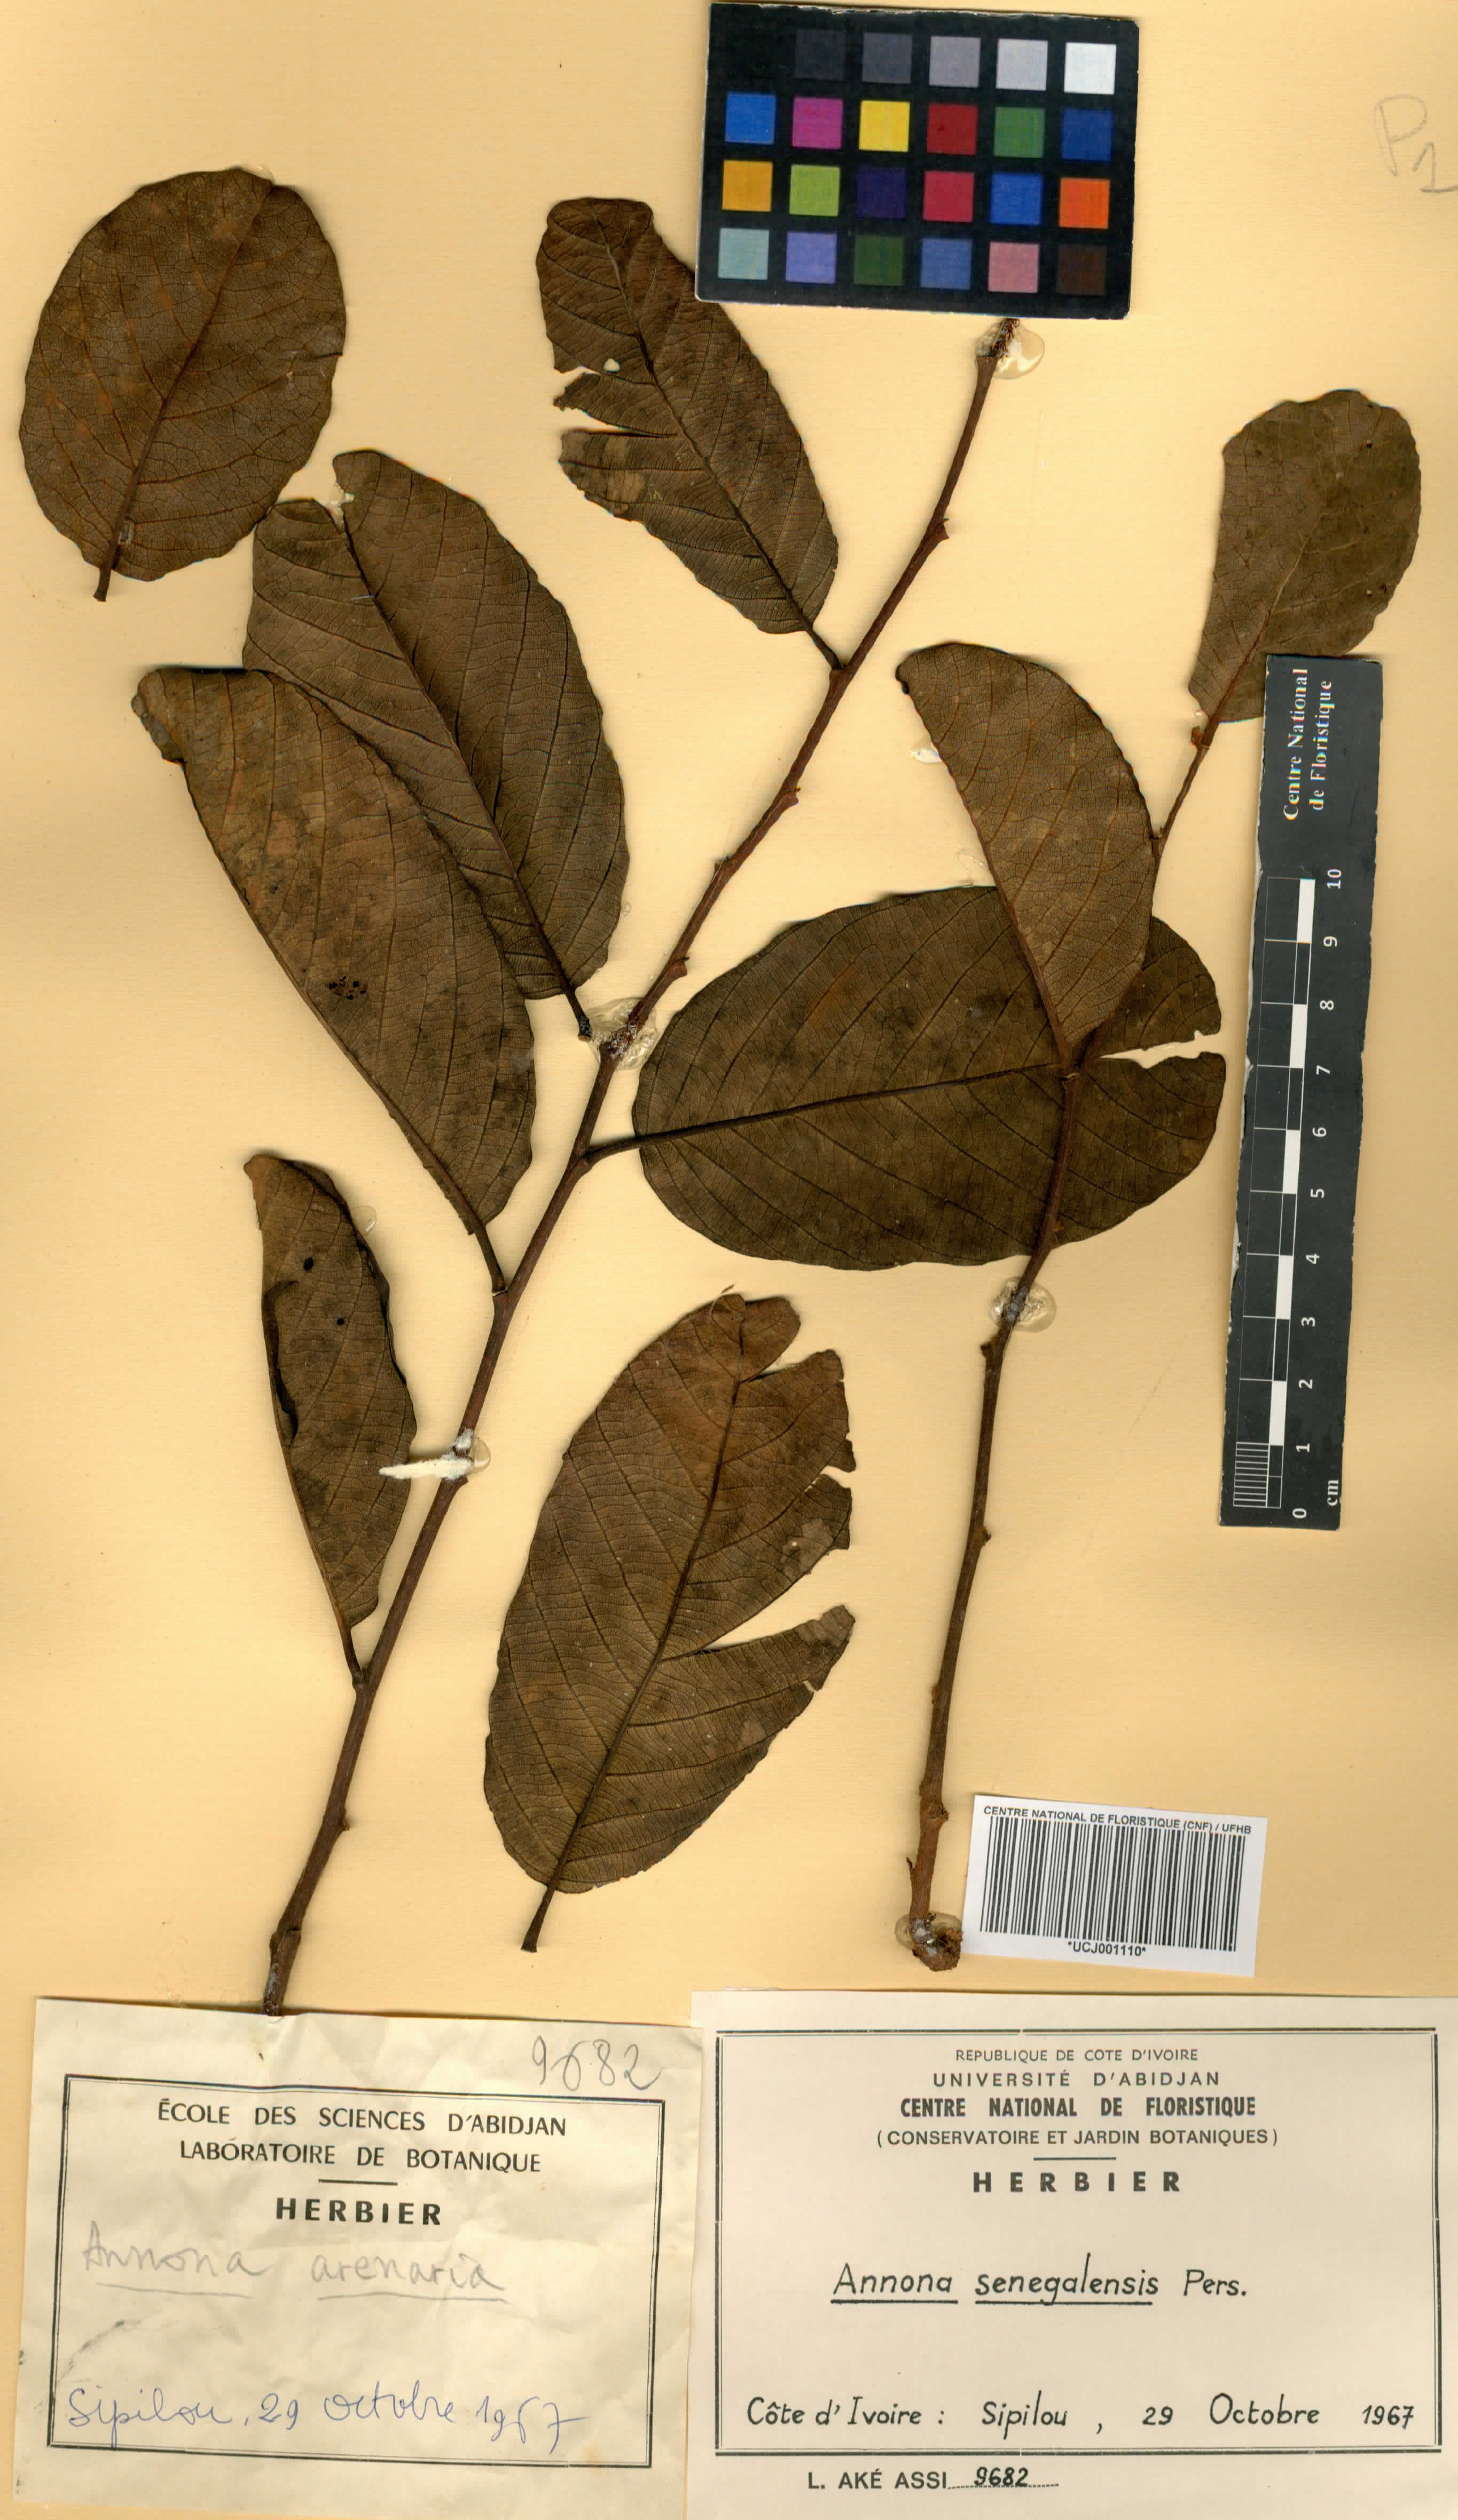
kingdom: Plantae
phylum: Tracheophyta
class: Magnoliopsida
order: Magnoliales
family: Annonaceae
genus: Annona
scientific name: Annona senegalensis
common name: Wild custard-apple
